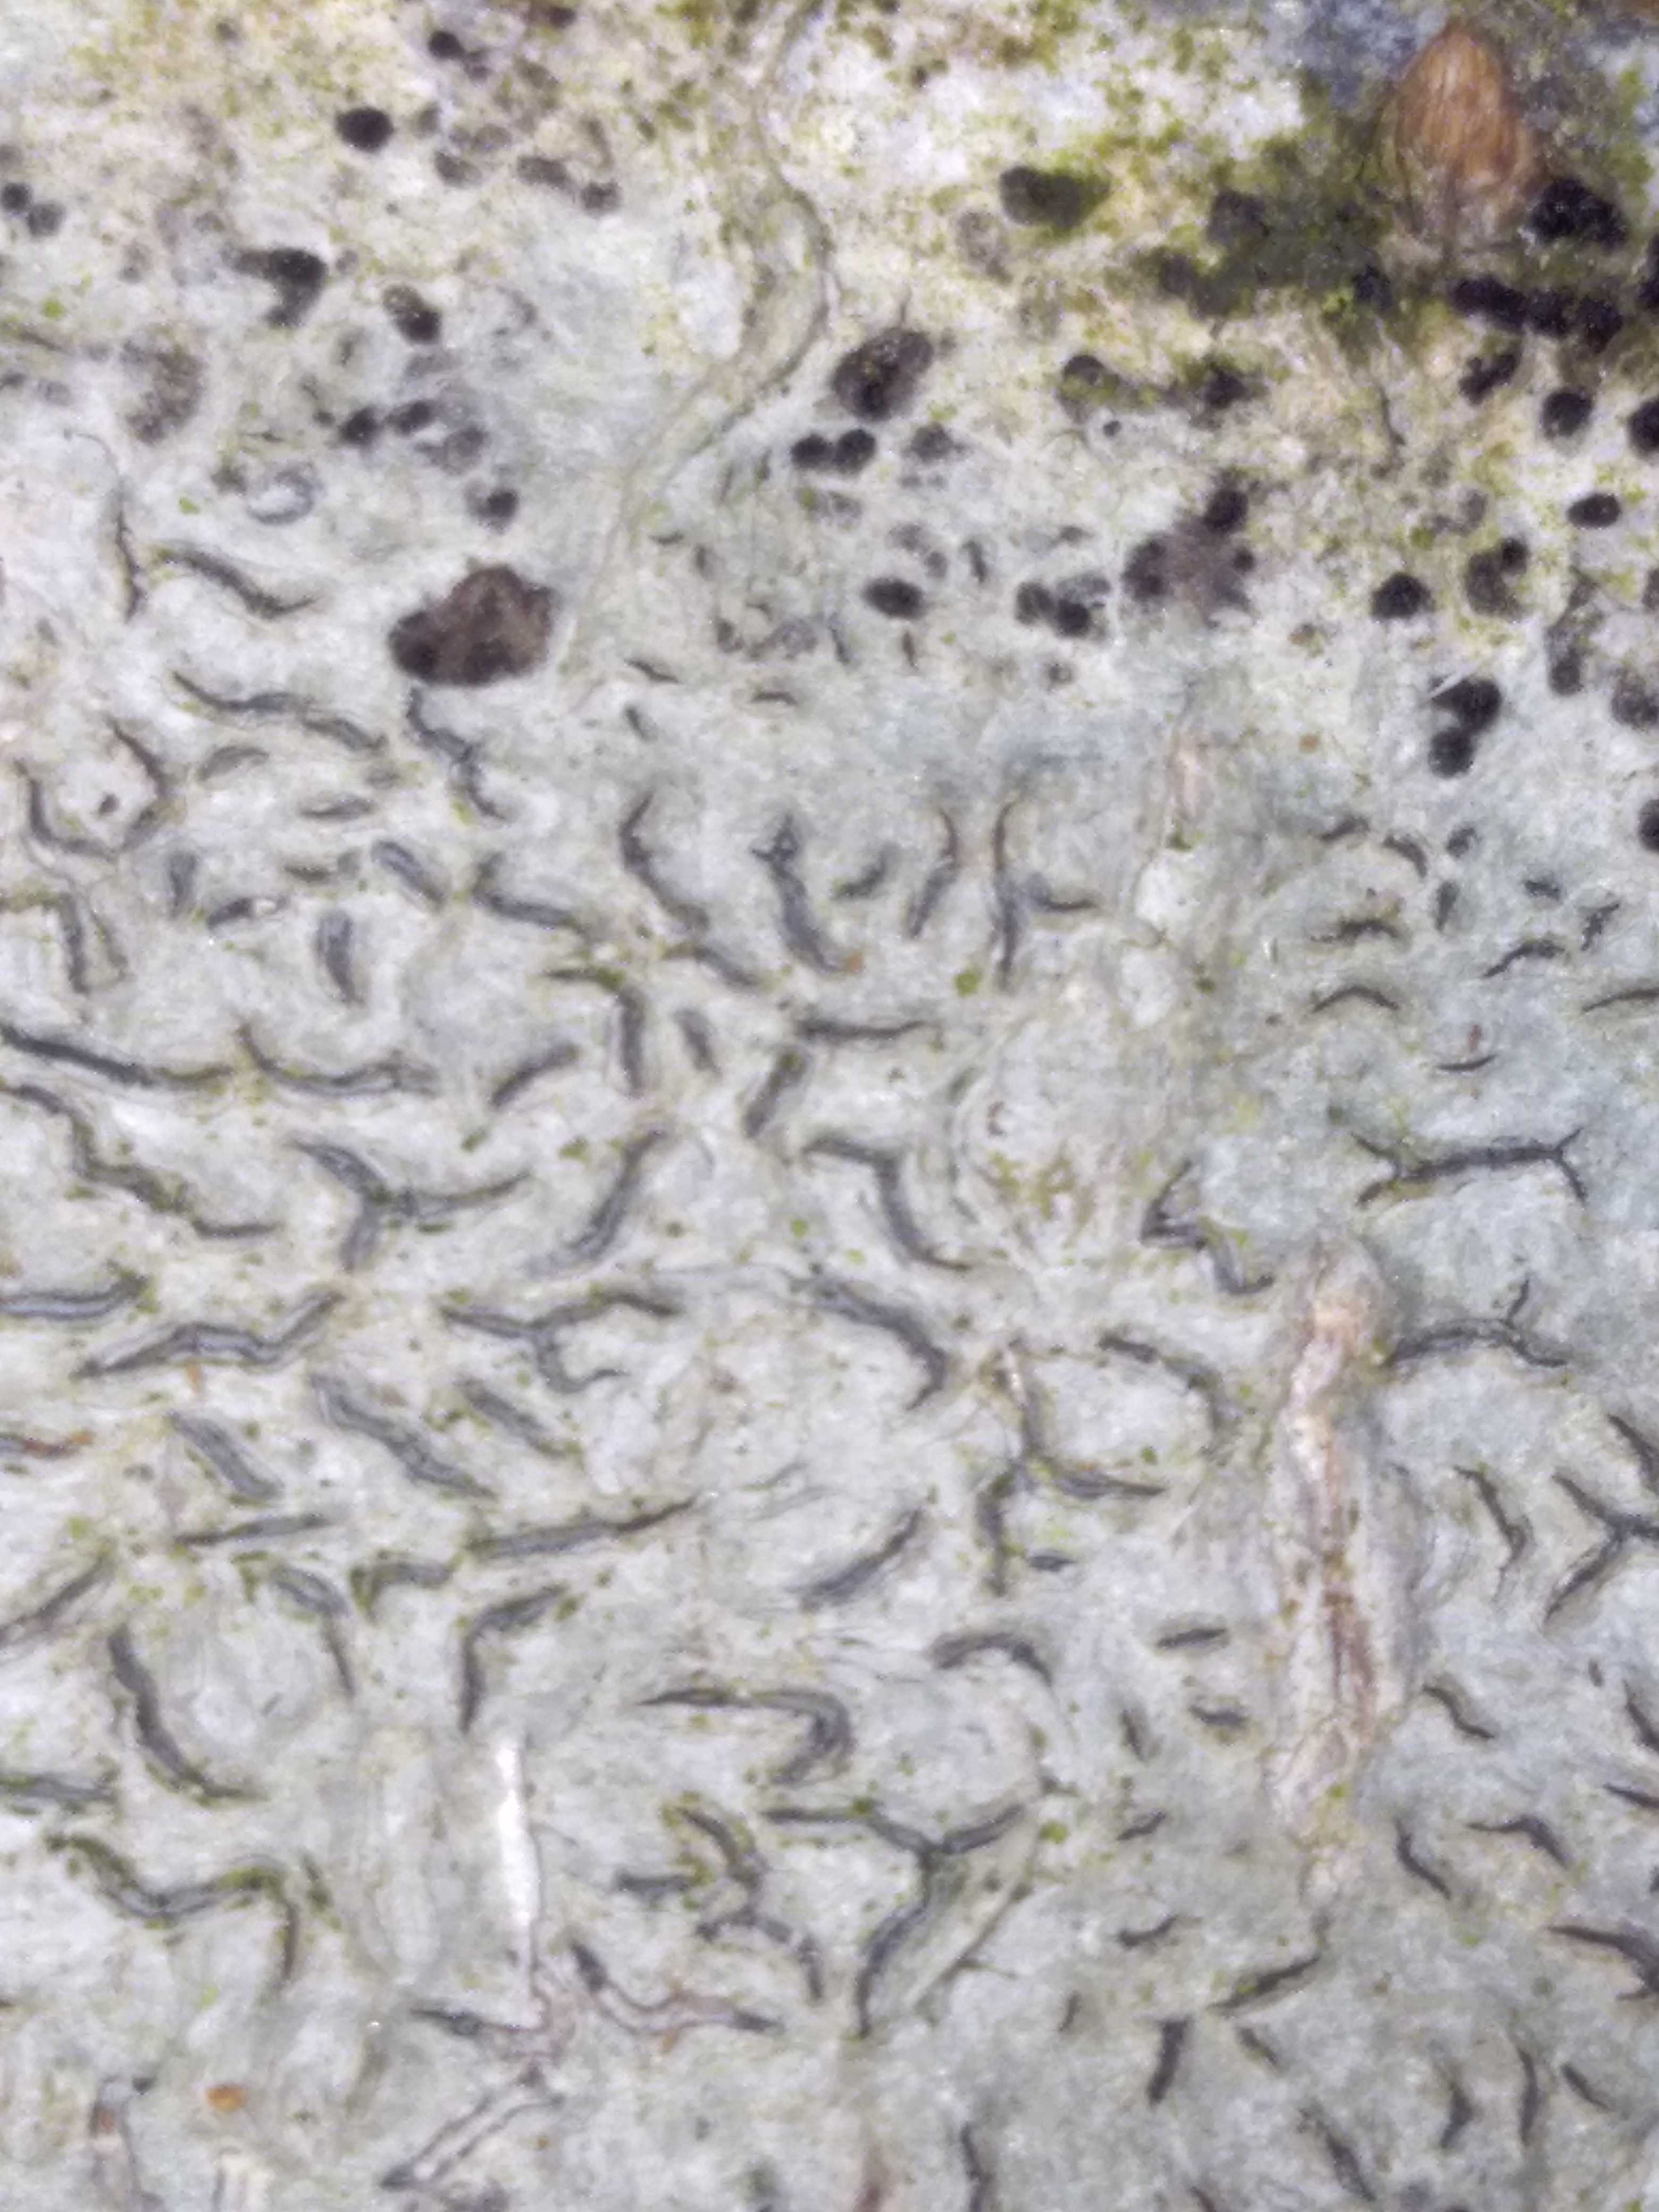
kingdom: Fungi
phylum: Ascomycota
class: Lecanoromycetes
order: Ostropales
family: Graphidaceae
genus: Graphis
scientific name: Graphis scripta
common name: almindelig skriftlav
